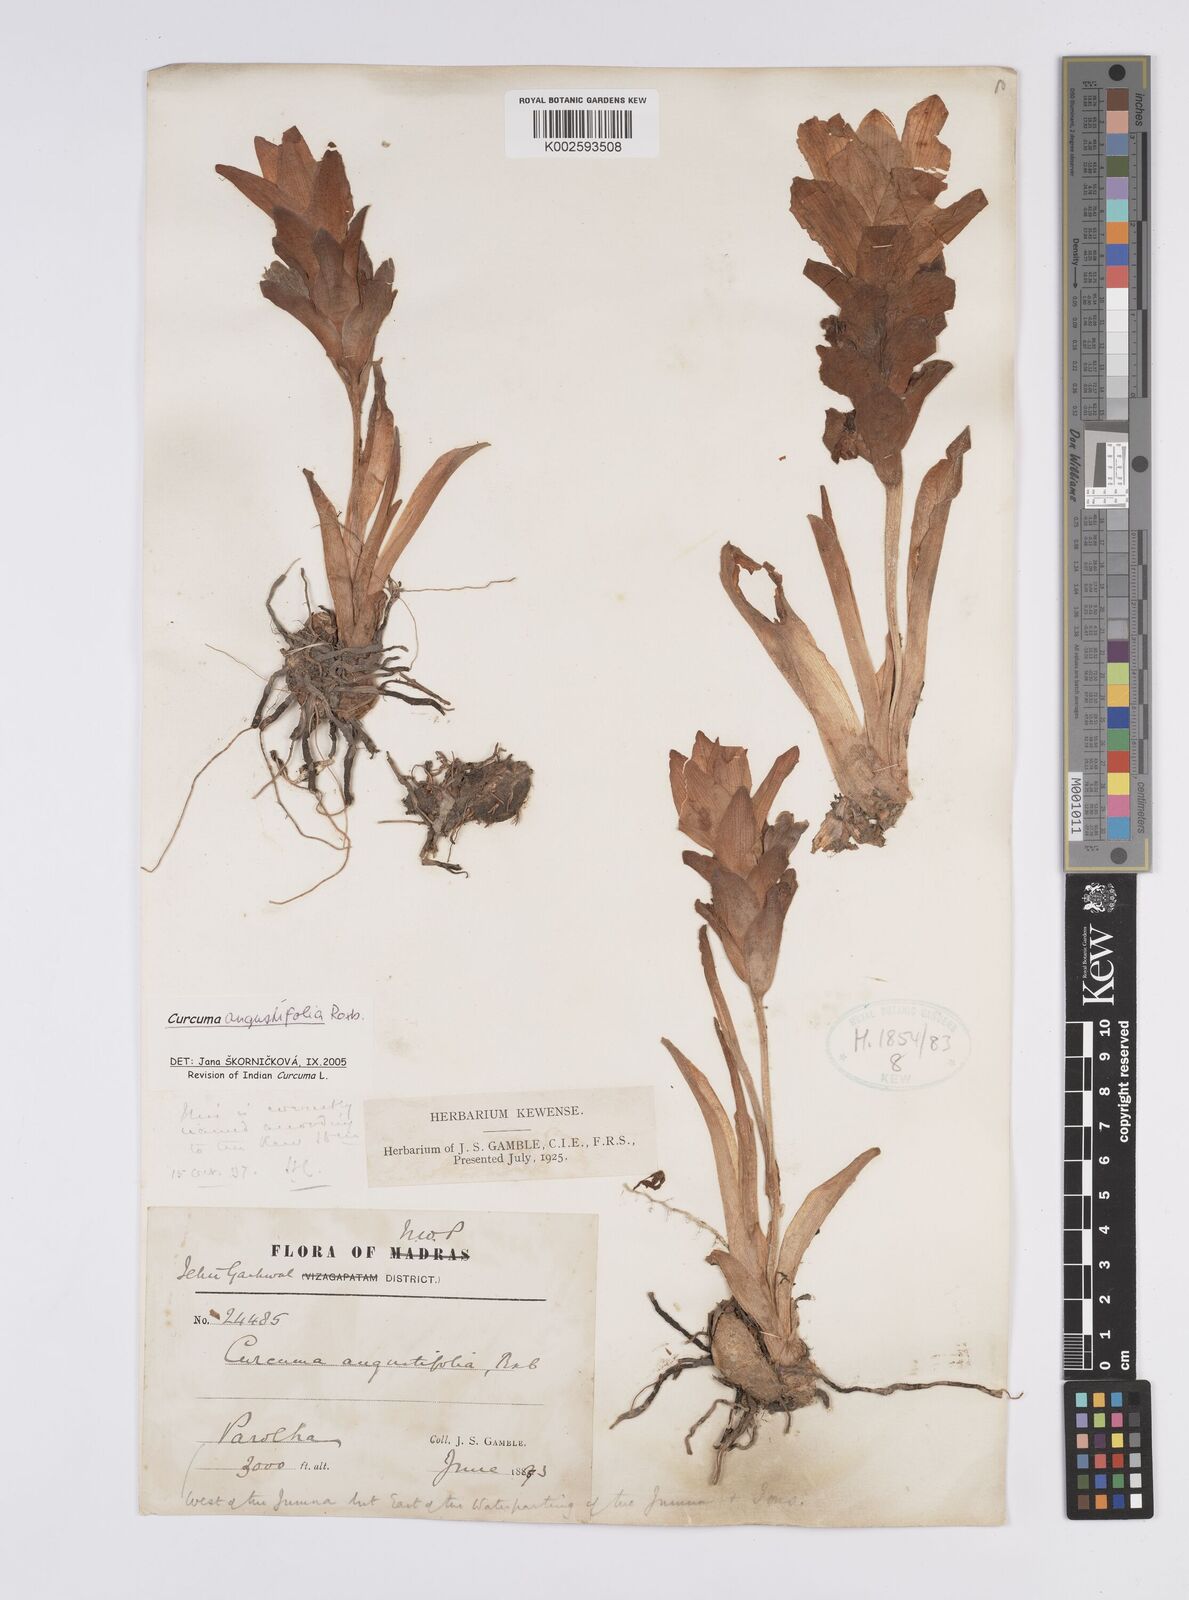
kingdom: Plantae
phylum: Tracheophyta
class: Liliopsida
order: Zingiberales
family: Zingiberaceae
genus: Curcuma
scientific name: Curcuma angustifolia
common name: East indian arrowroot
